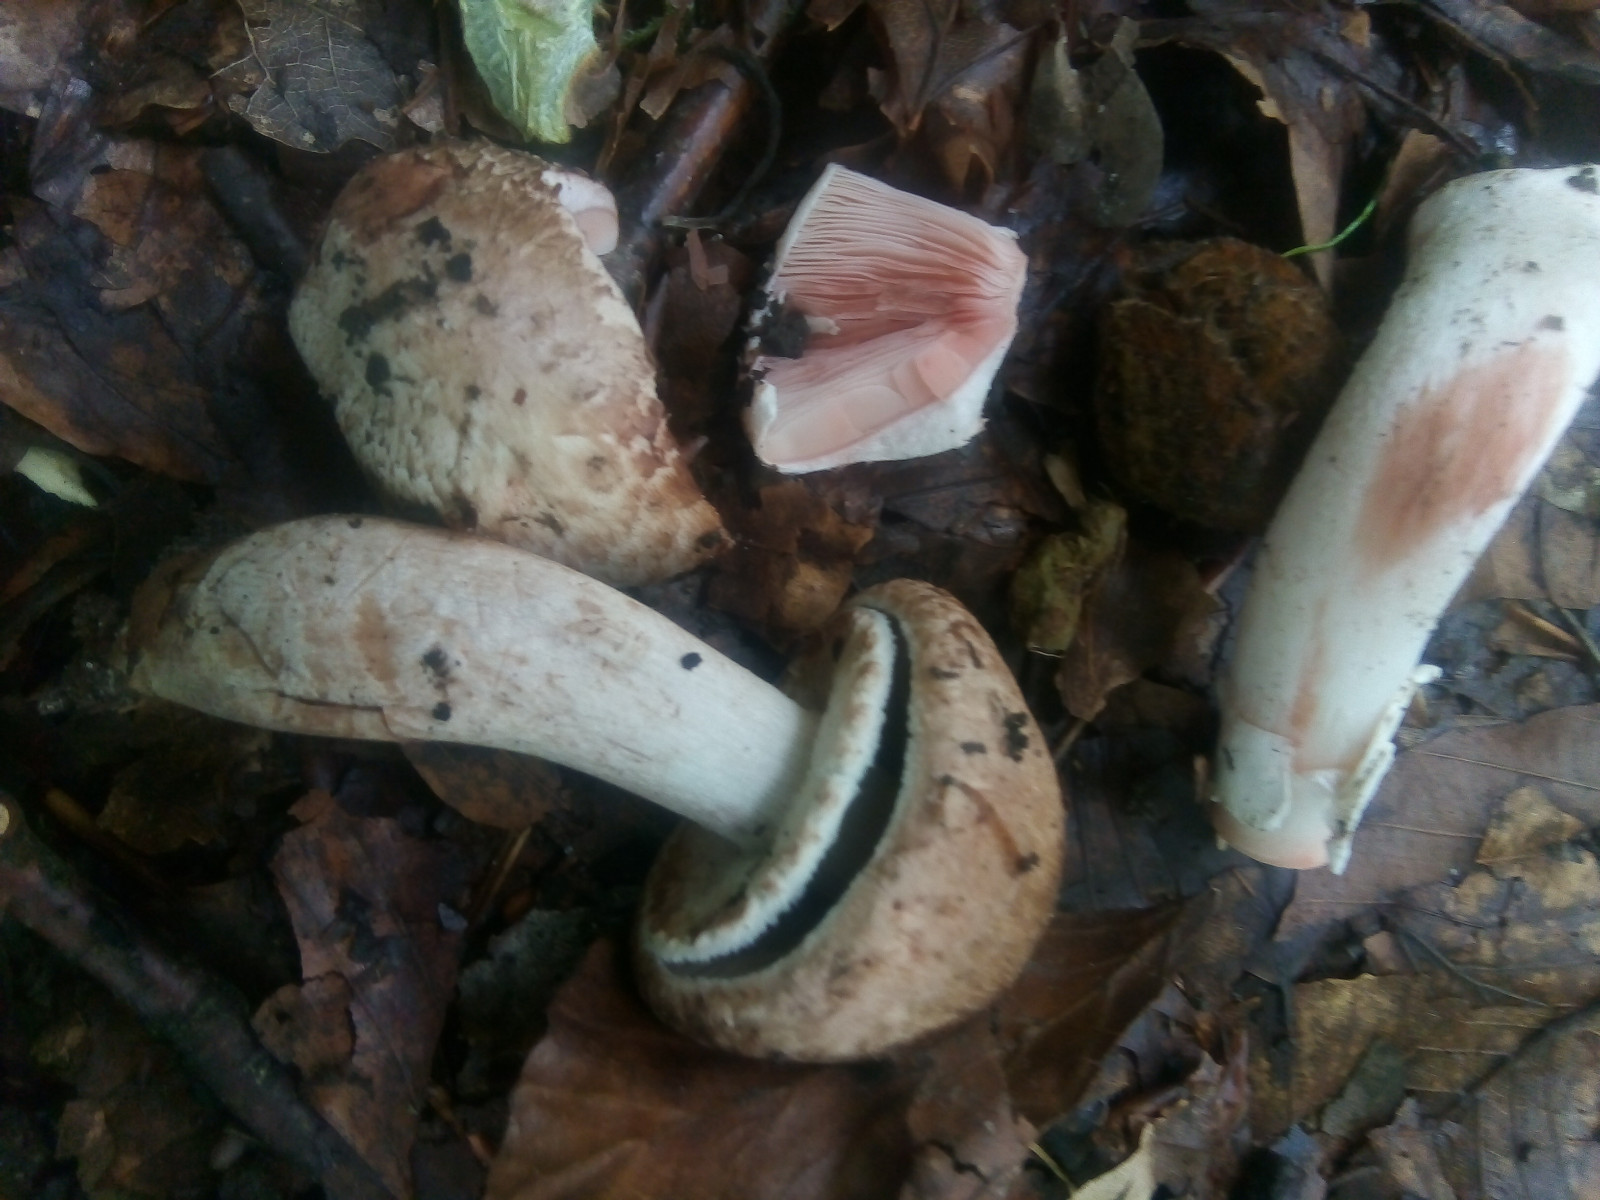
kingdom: Fungi
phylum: Basidiomycota
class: Agaricomycetes
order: Agaricales
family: Agaricaceae
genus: Agaricus
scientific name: Agaricus langei
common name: stor blod-champignon
